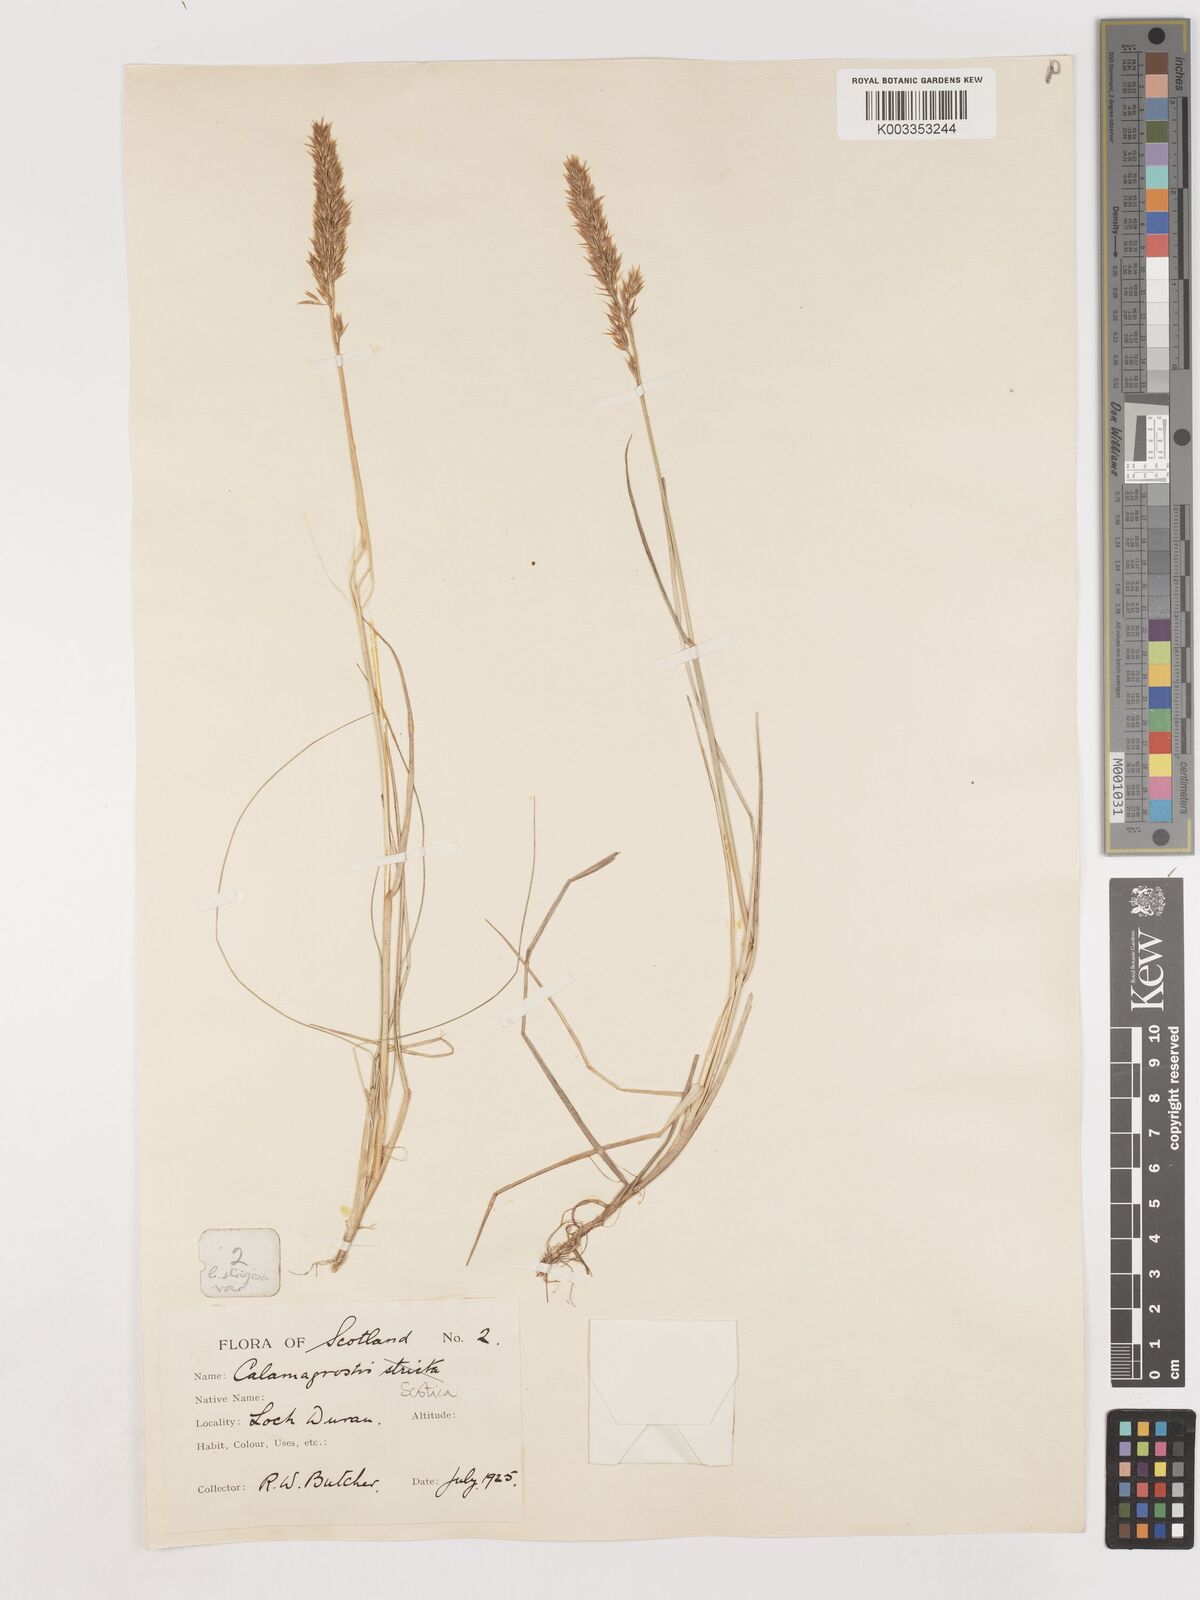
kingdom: Plantae
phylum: Tracheophyta
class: Liliopsida
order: Poales
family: Poaceae
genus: Calamagrostis
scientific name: Calamagrostis scotica
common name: Scottish small-reed
